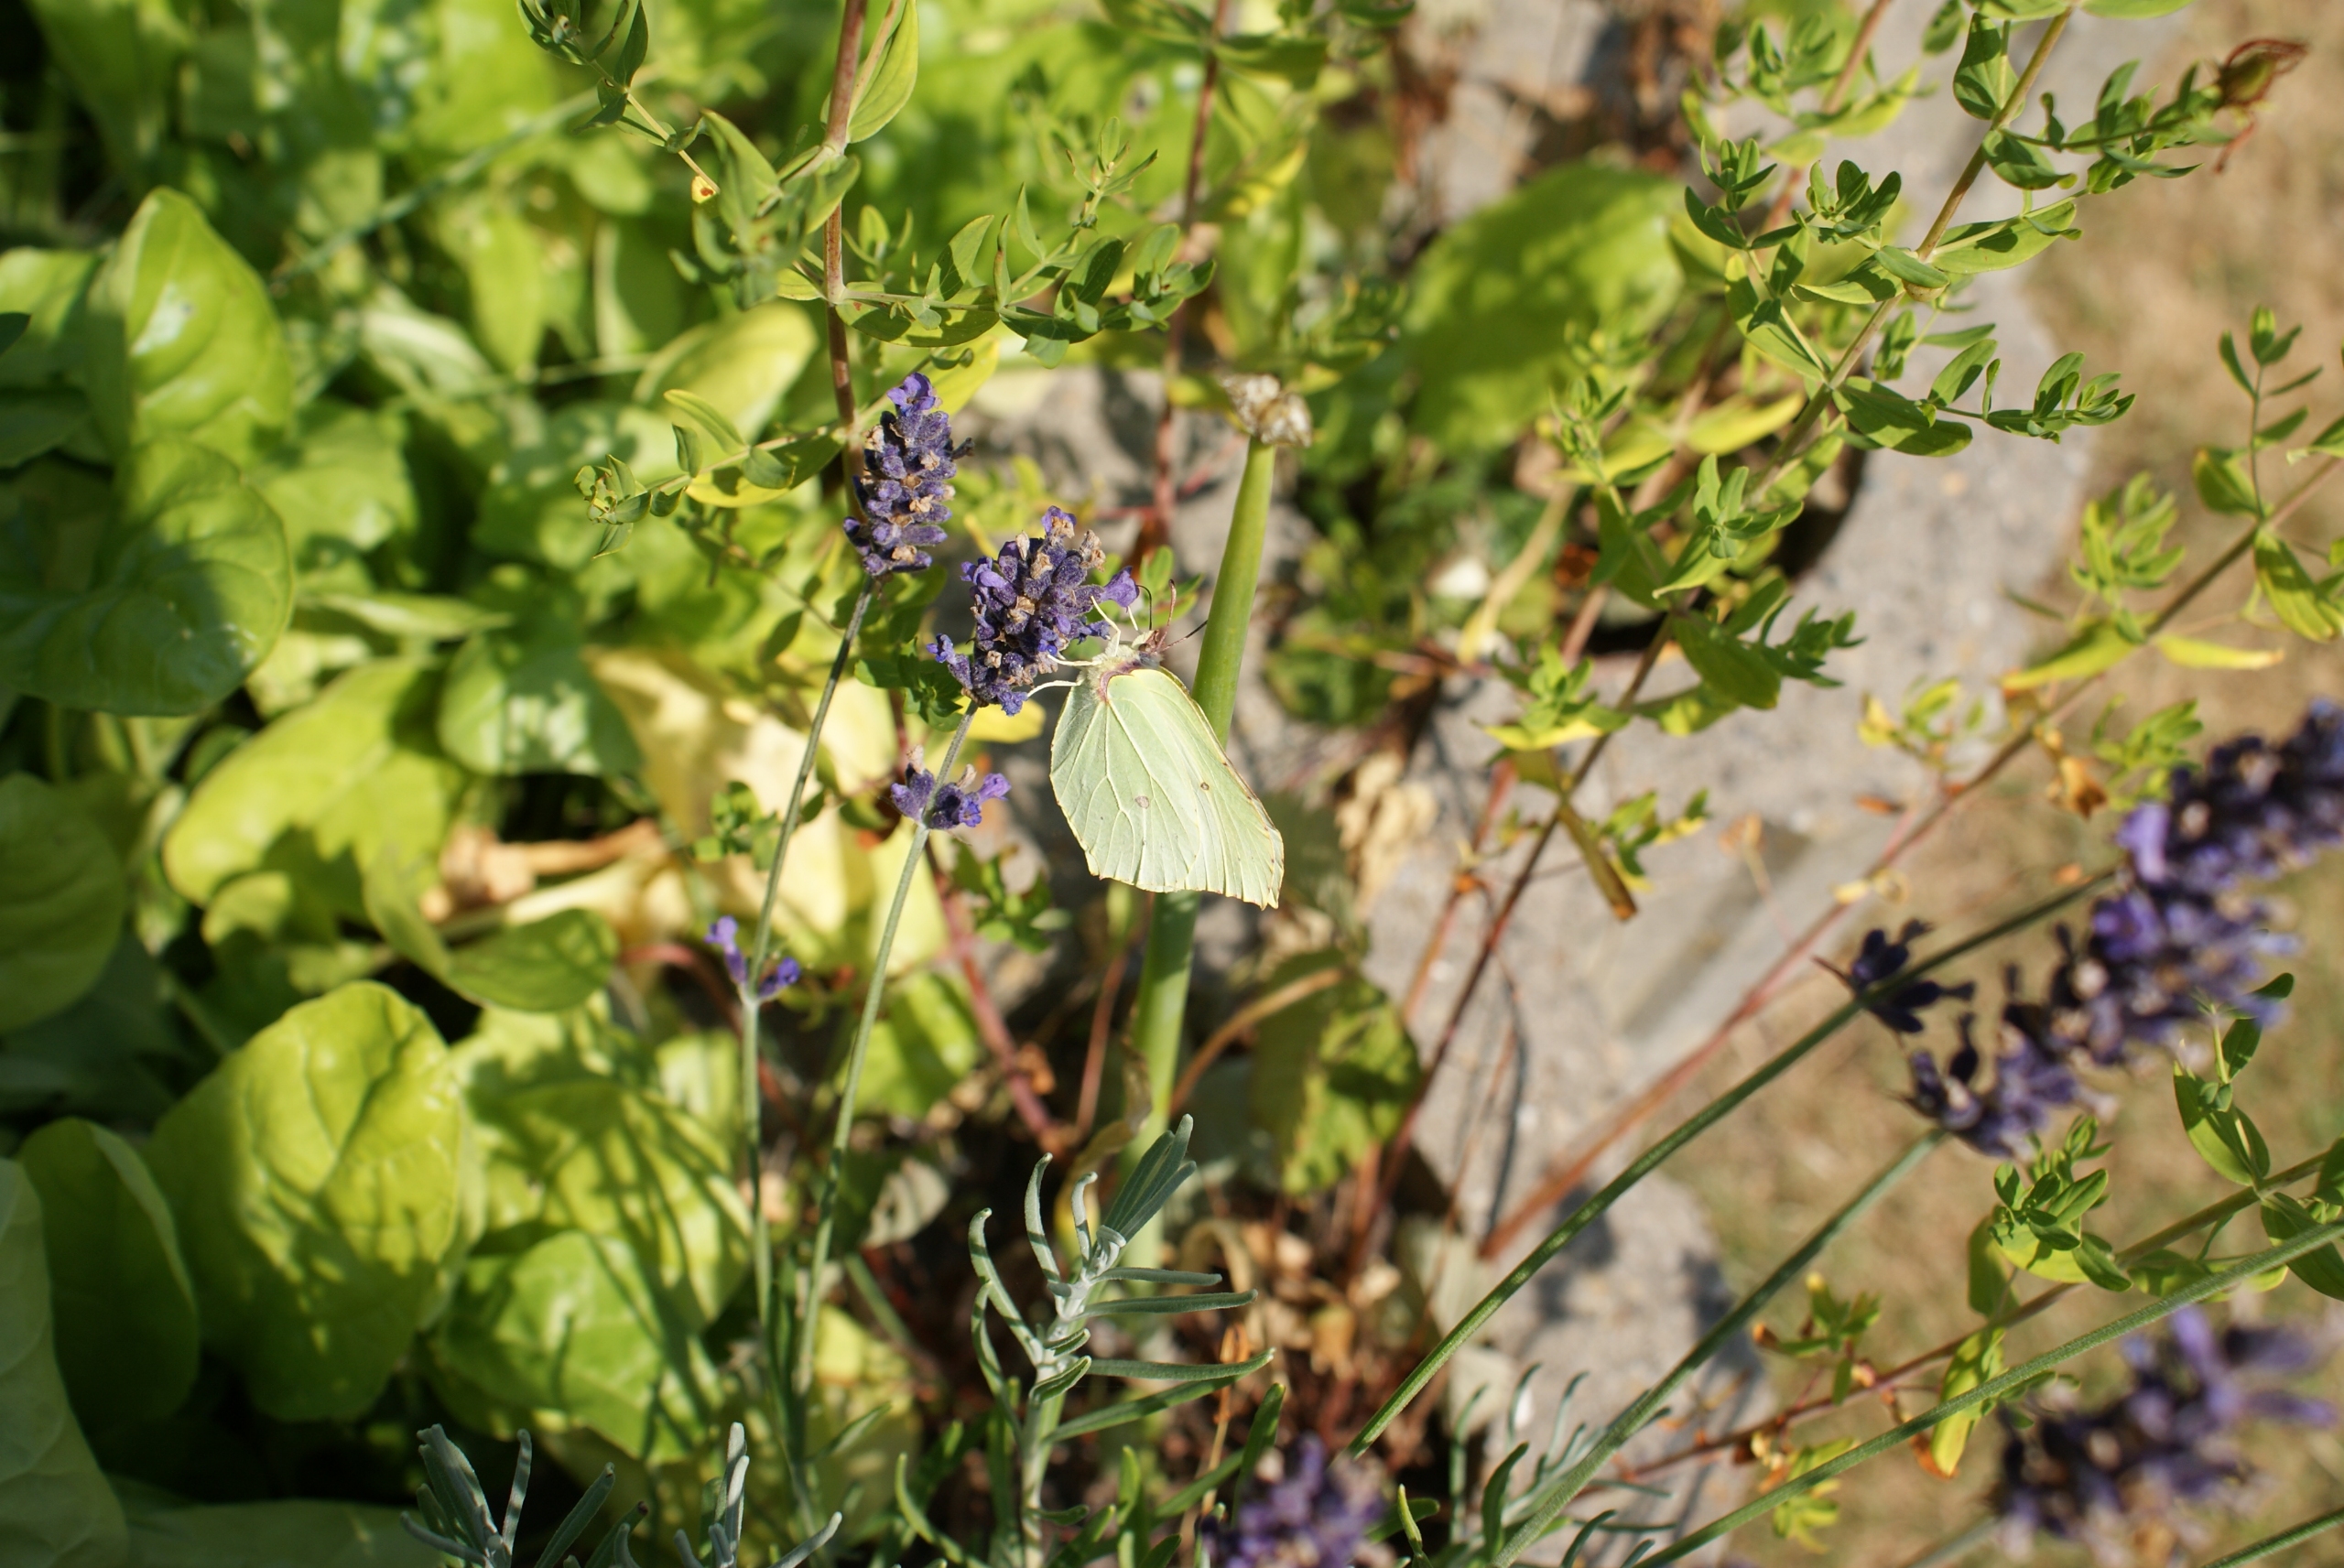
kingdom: Animalia
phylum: Arthropoda
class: Insecta
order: Lepidoptera
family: Pieridae
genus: Gonepteryx
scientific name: Gonepteryx rhamni
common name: Citronsommerfugl
